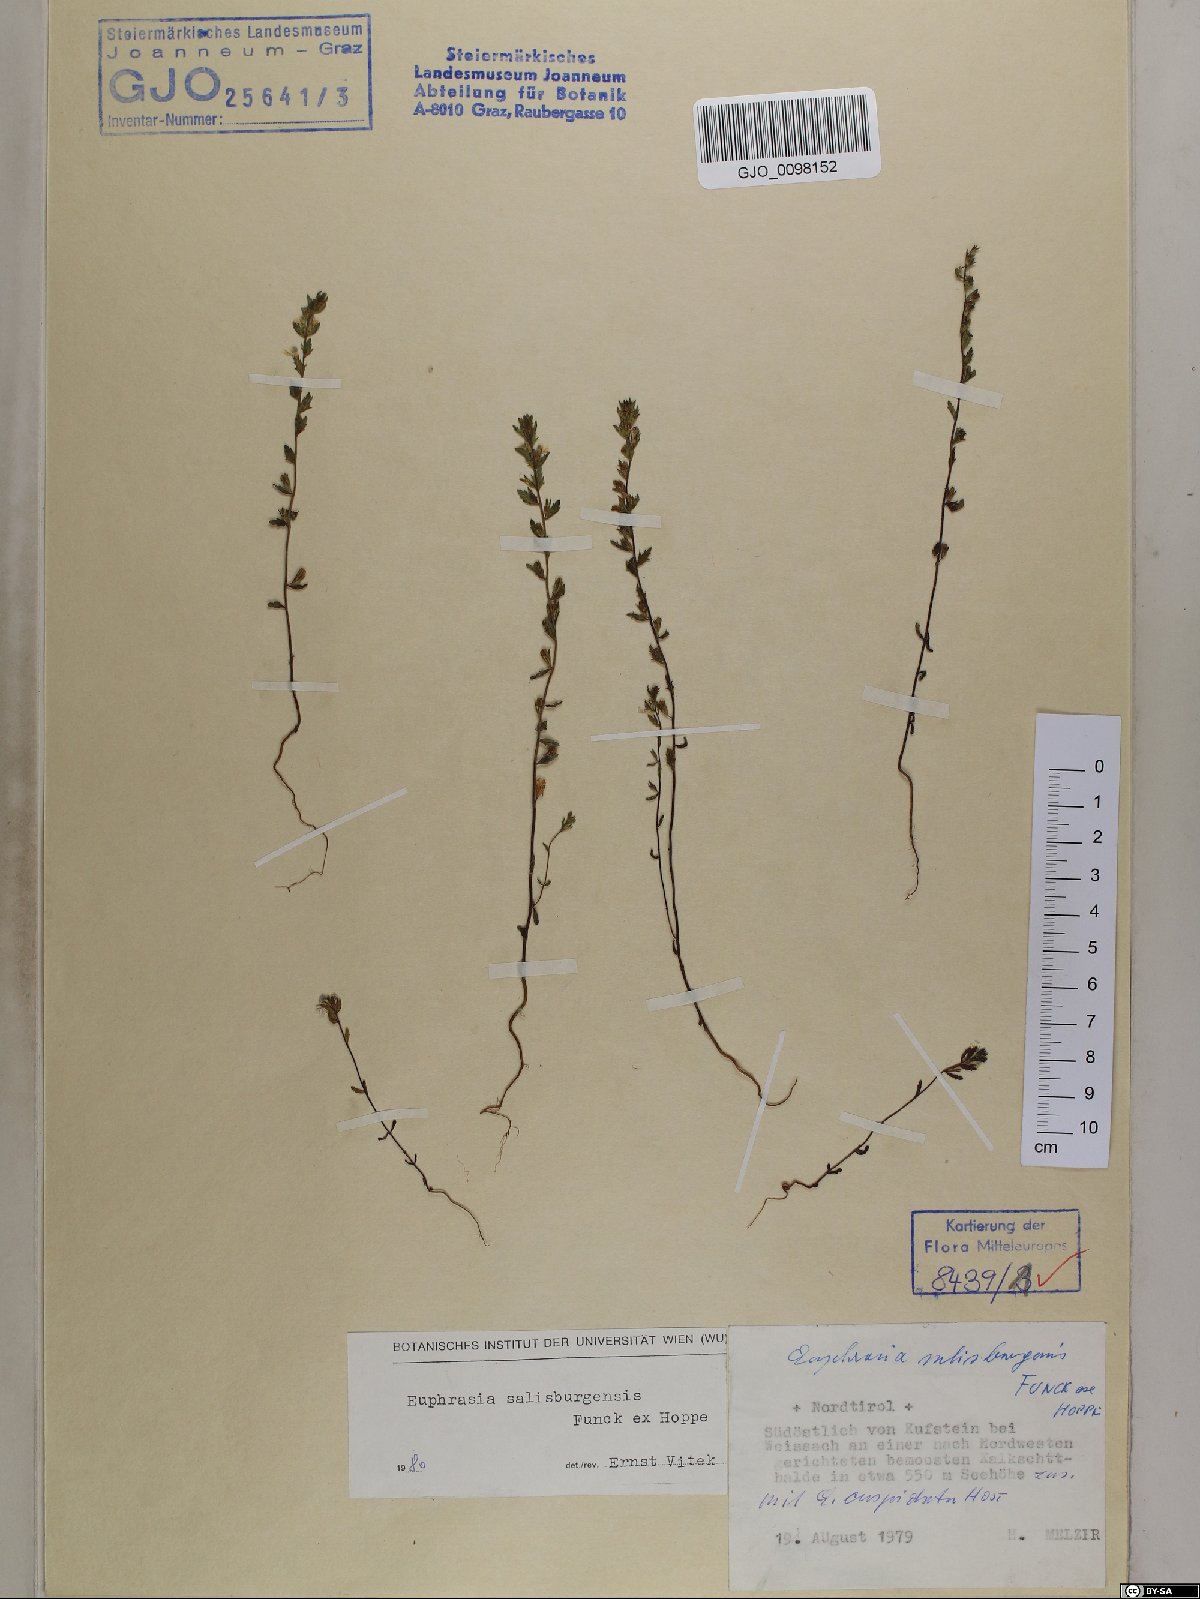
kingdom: Plantae
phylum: Tracheophyta
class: Magnoliopsida
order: Lamiales
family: Orobanchaceae
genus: Euphrasia
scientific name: Euphrasia salisburgensis
